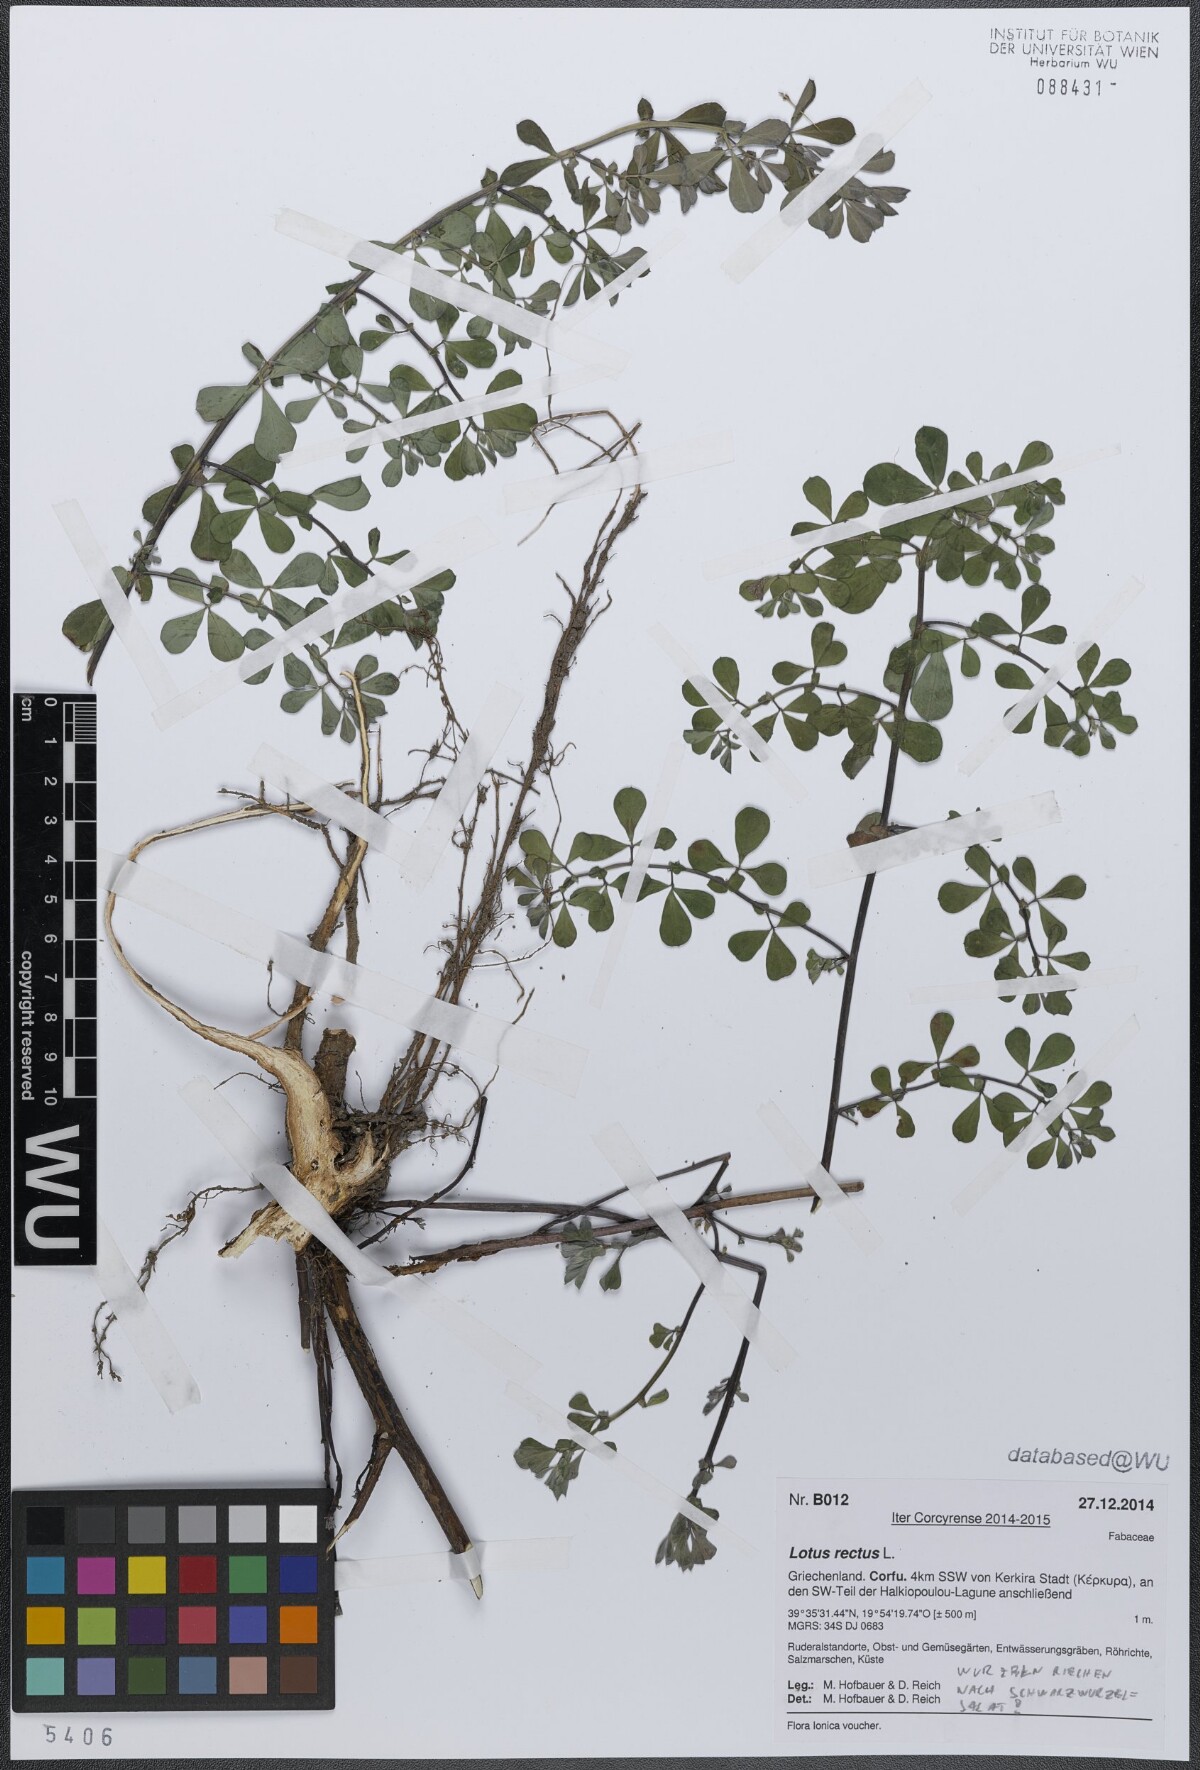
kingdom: Plantae
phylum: Tracheophyta
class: Magnoliopsida
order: Fabales
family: Fabaceae
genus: Lotus
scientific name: Lotus rectus
